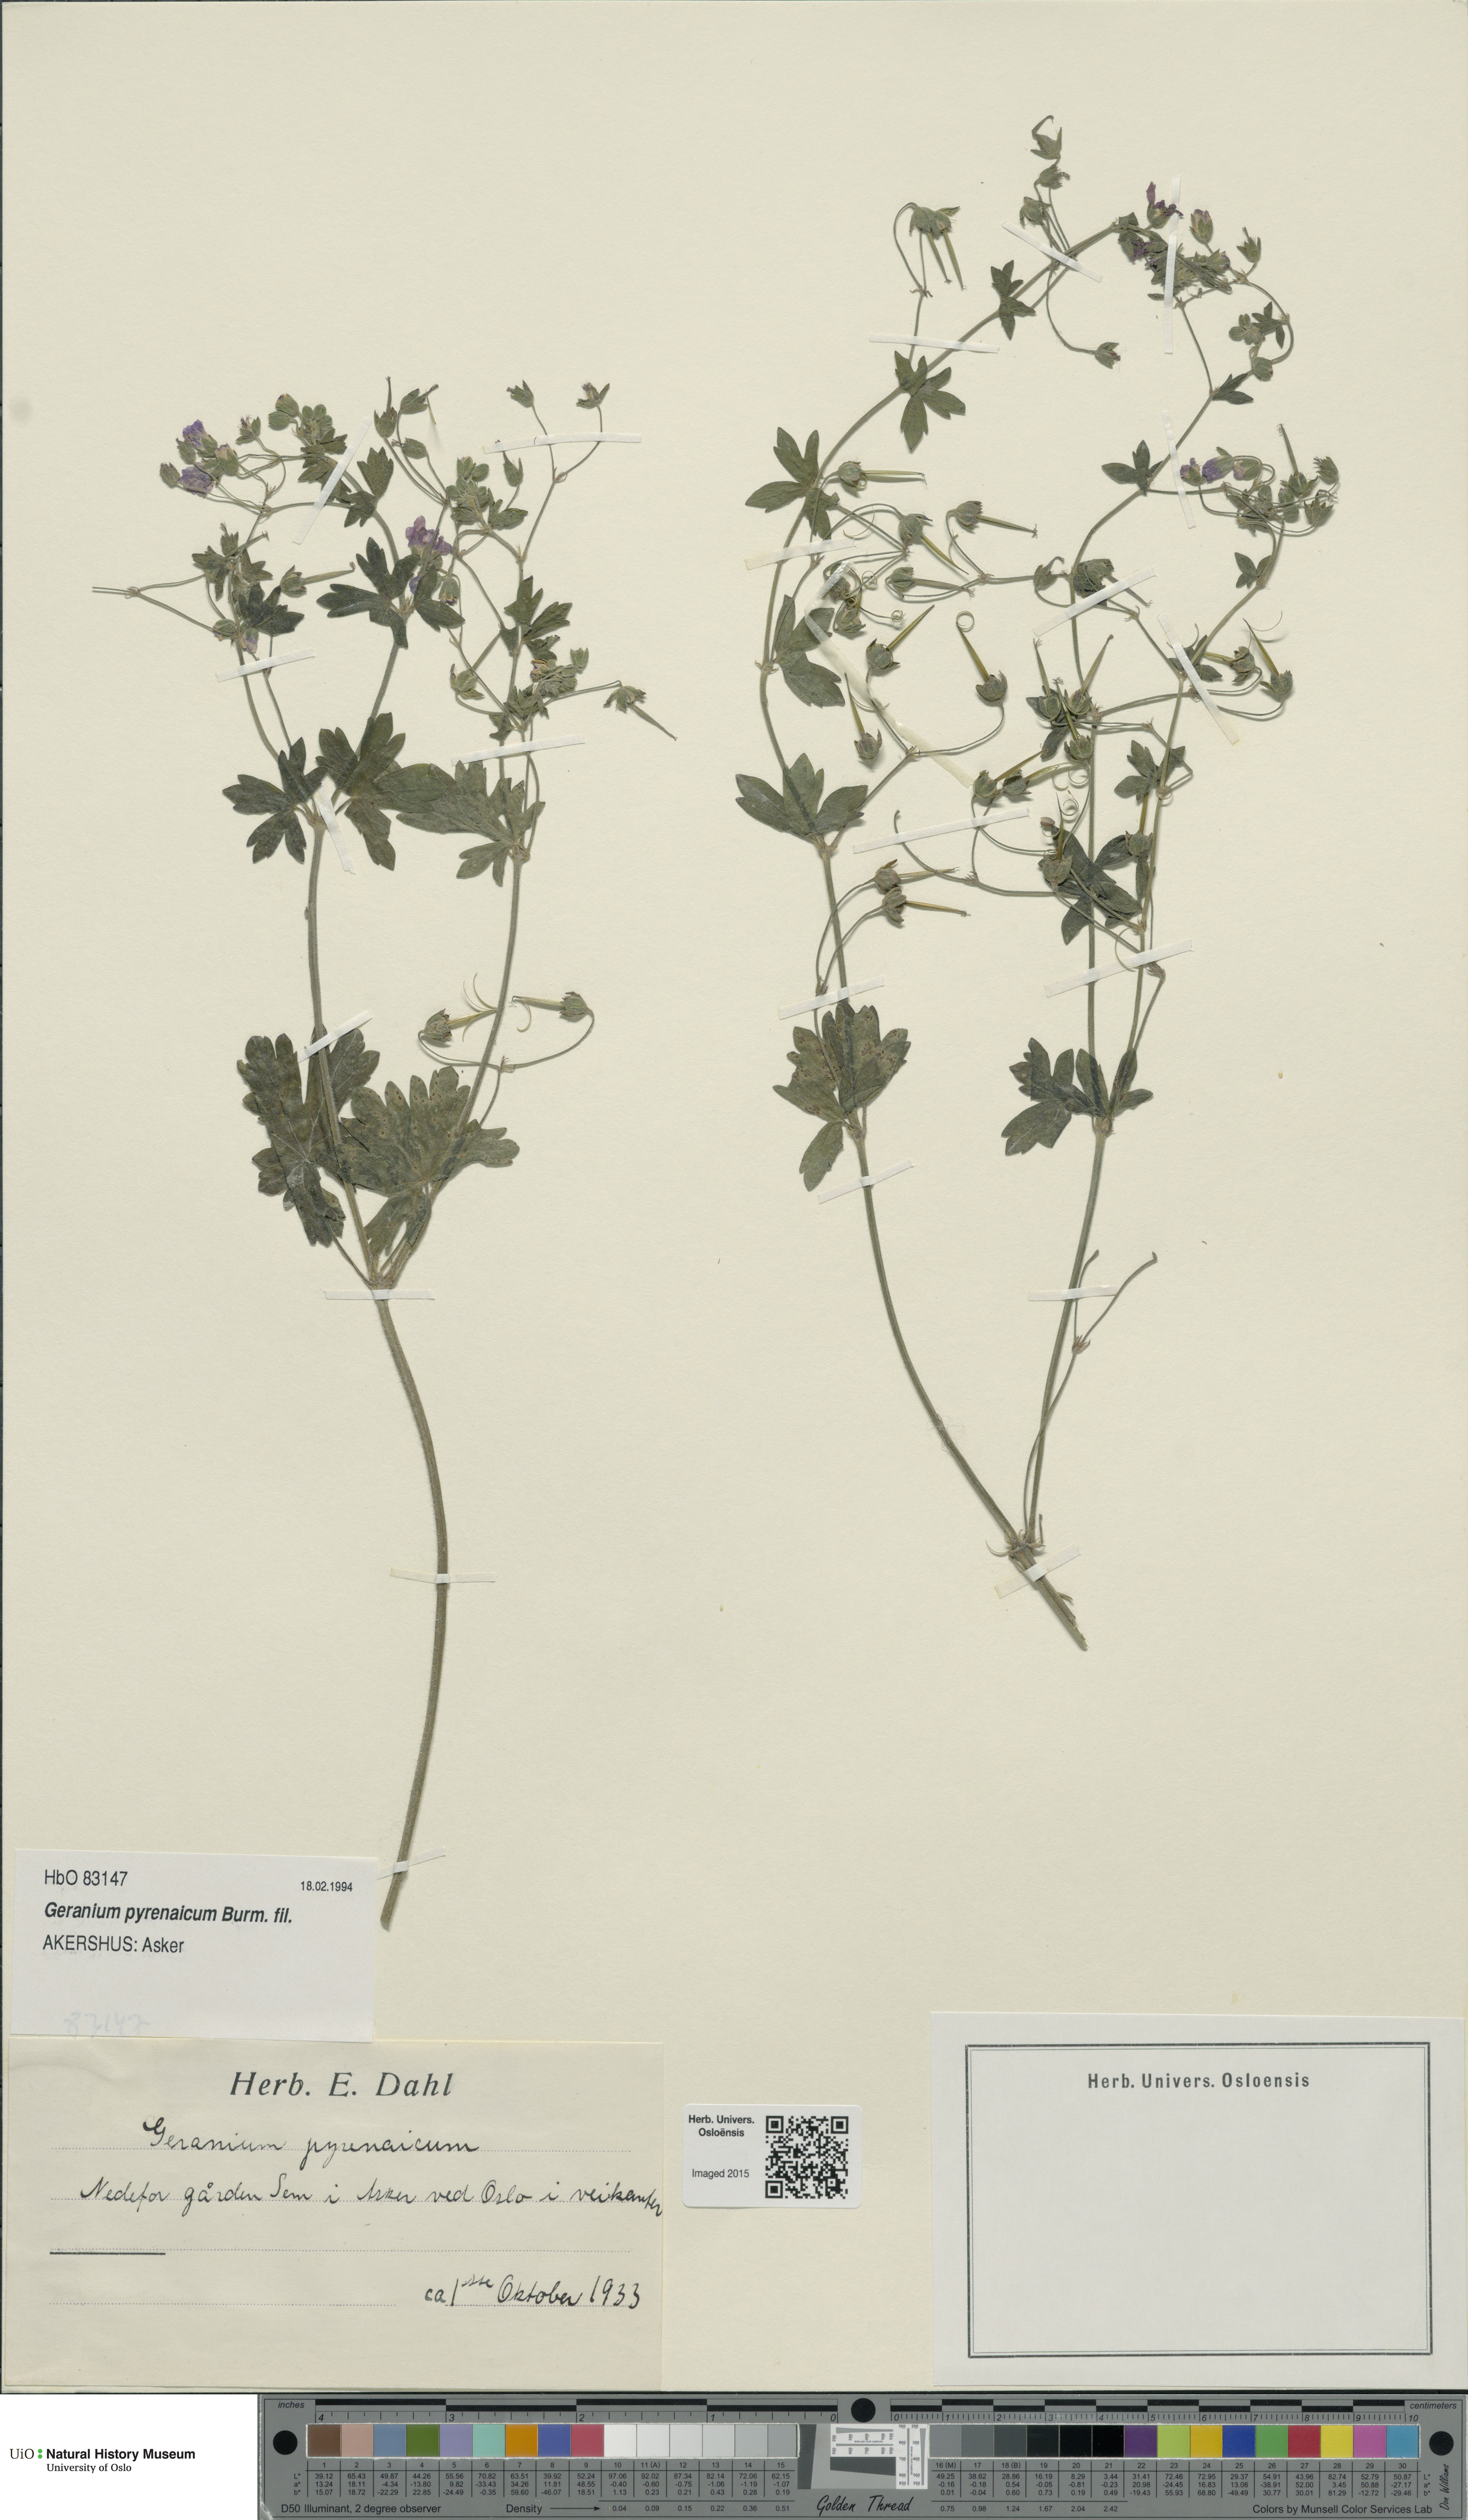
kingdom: Plantae
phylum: Tracheophyta
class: Magnoliopsida
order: Geraniales
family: Geraniaceae
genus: Geranium
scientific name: Geranium pyrenaicum
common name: Hedgerow crane's-bill
